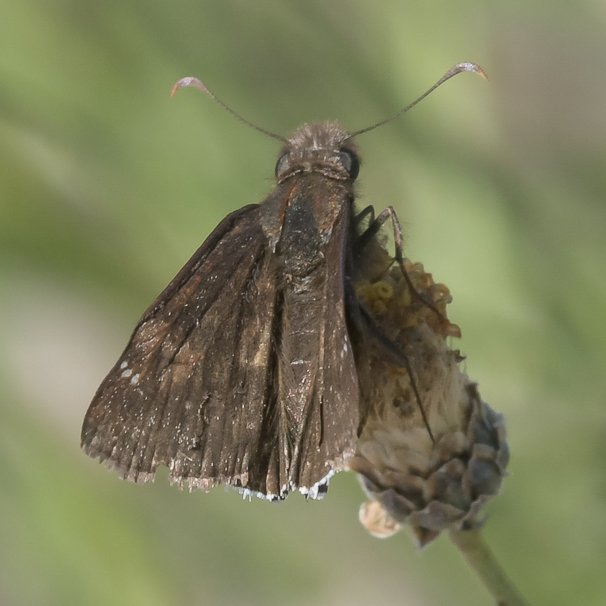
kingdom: Animalia
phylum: Arthropoda
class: Insecta
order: Lepidoptera
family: Hesperiidae
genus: Chiomara
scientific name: Chiomara asychis
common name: White-patched Skipper
